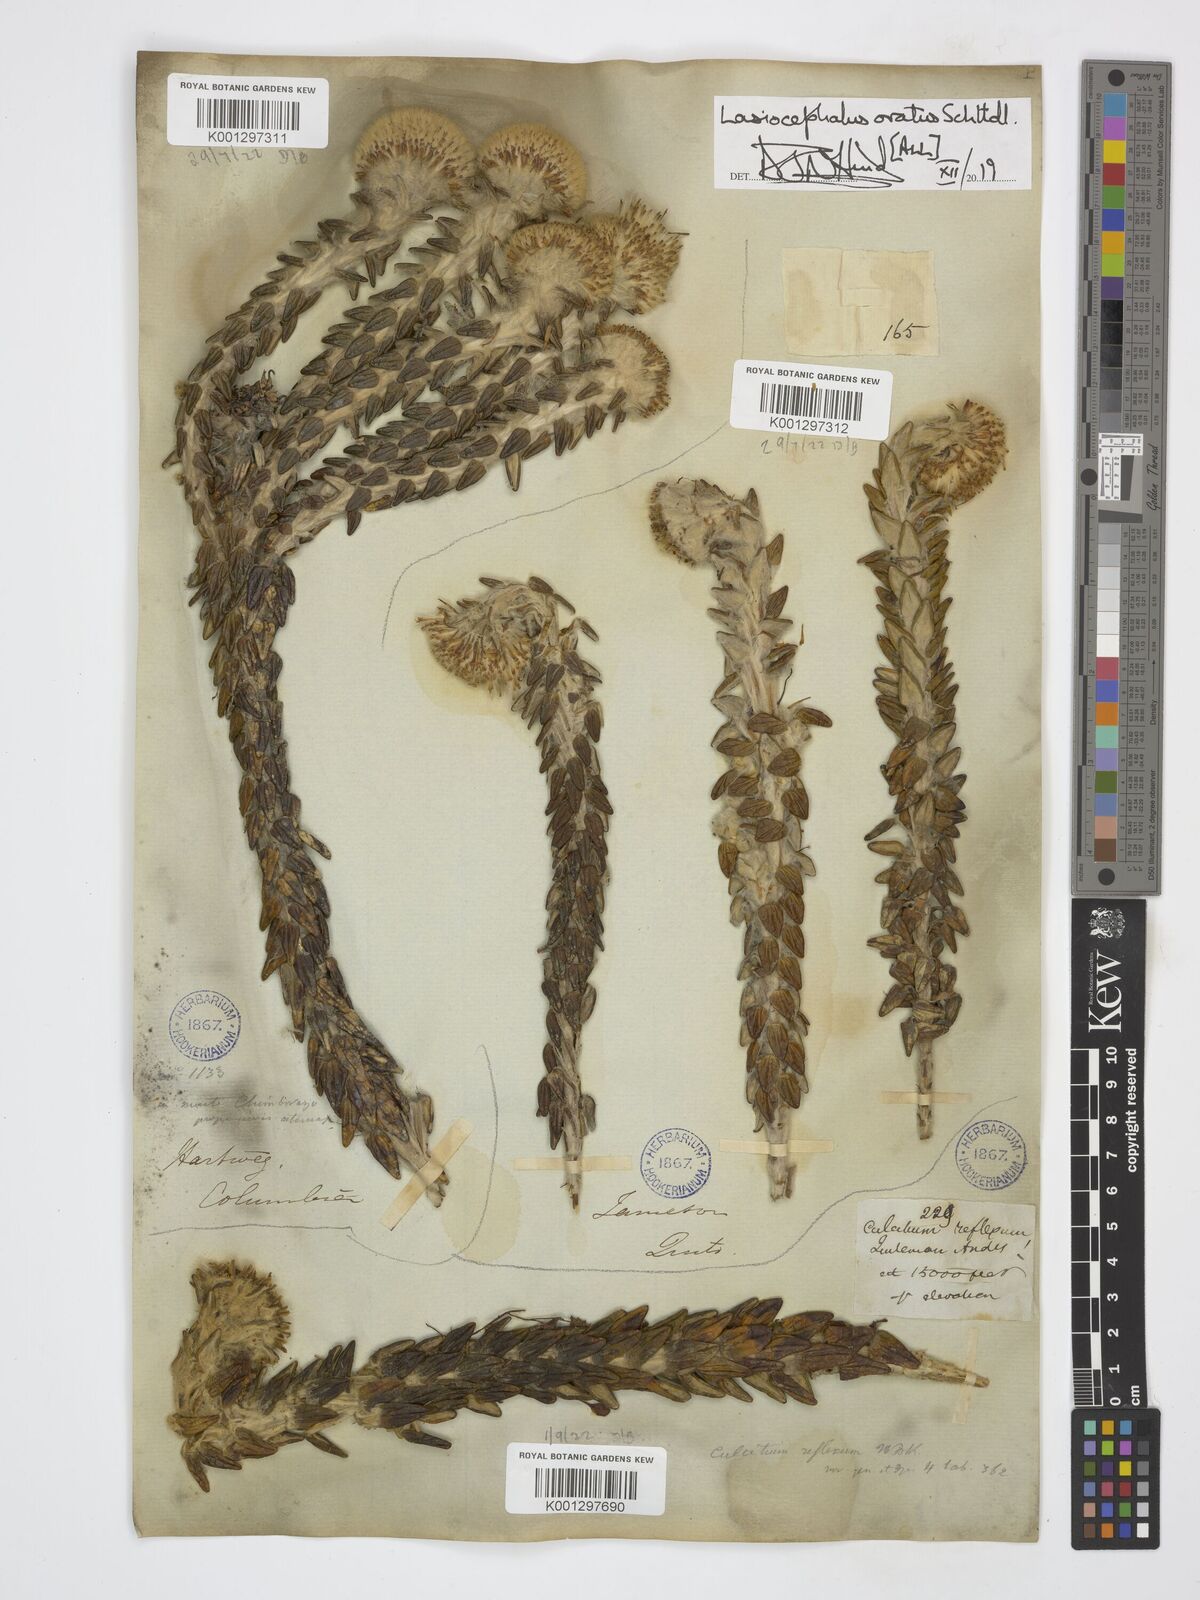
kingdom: Plantae
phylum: Tracheophyta
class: Magnoliopsida
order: Asterales
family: Asteraceae
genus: Lasiocephalus
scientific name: Lasiocephalus ovatus
